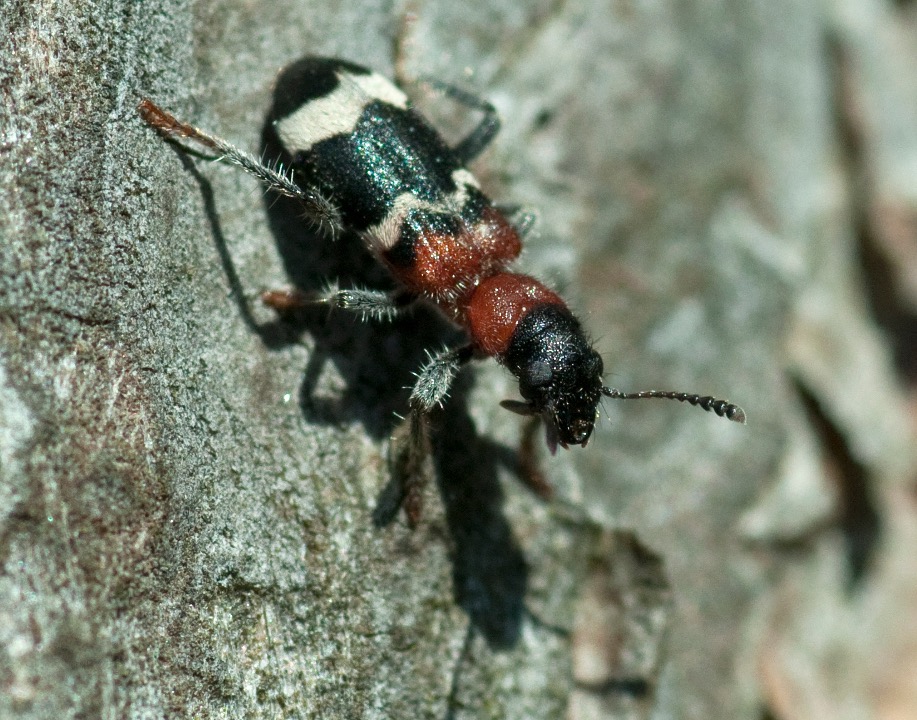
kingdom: Animalia
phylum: Arthropoda
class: Insecta
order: Coleoptera
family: Cleridae
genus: Thanasimus
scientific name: Thanasimus formicarius
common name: Myrebille
